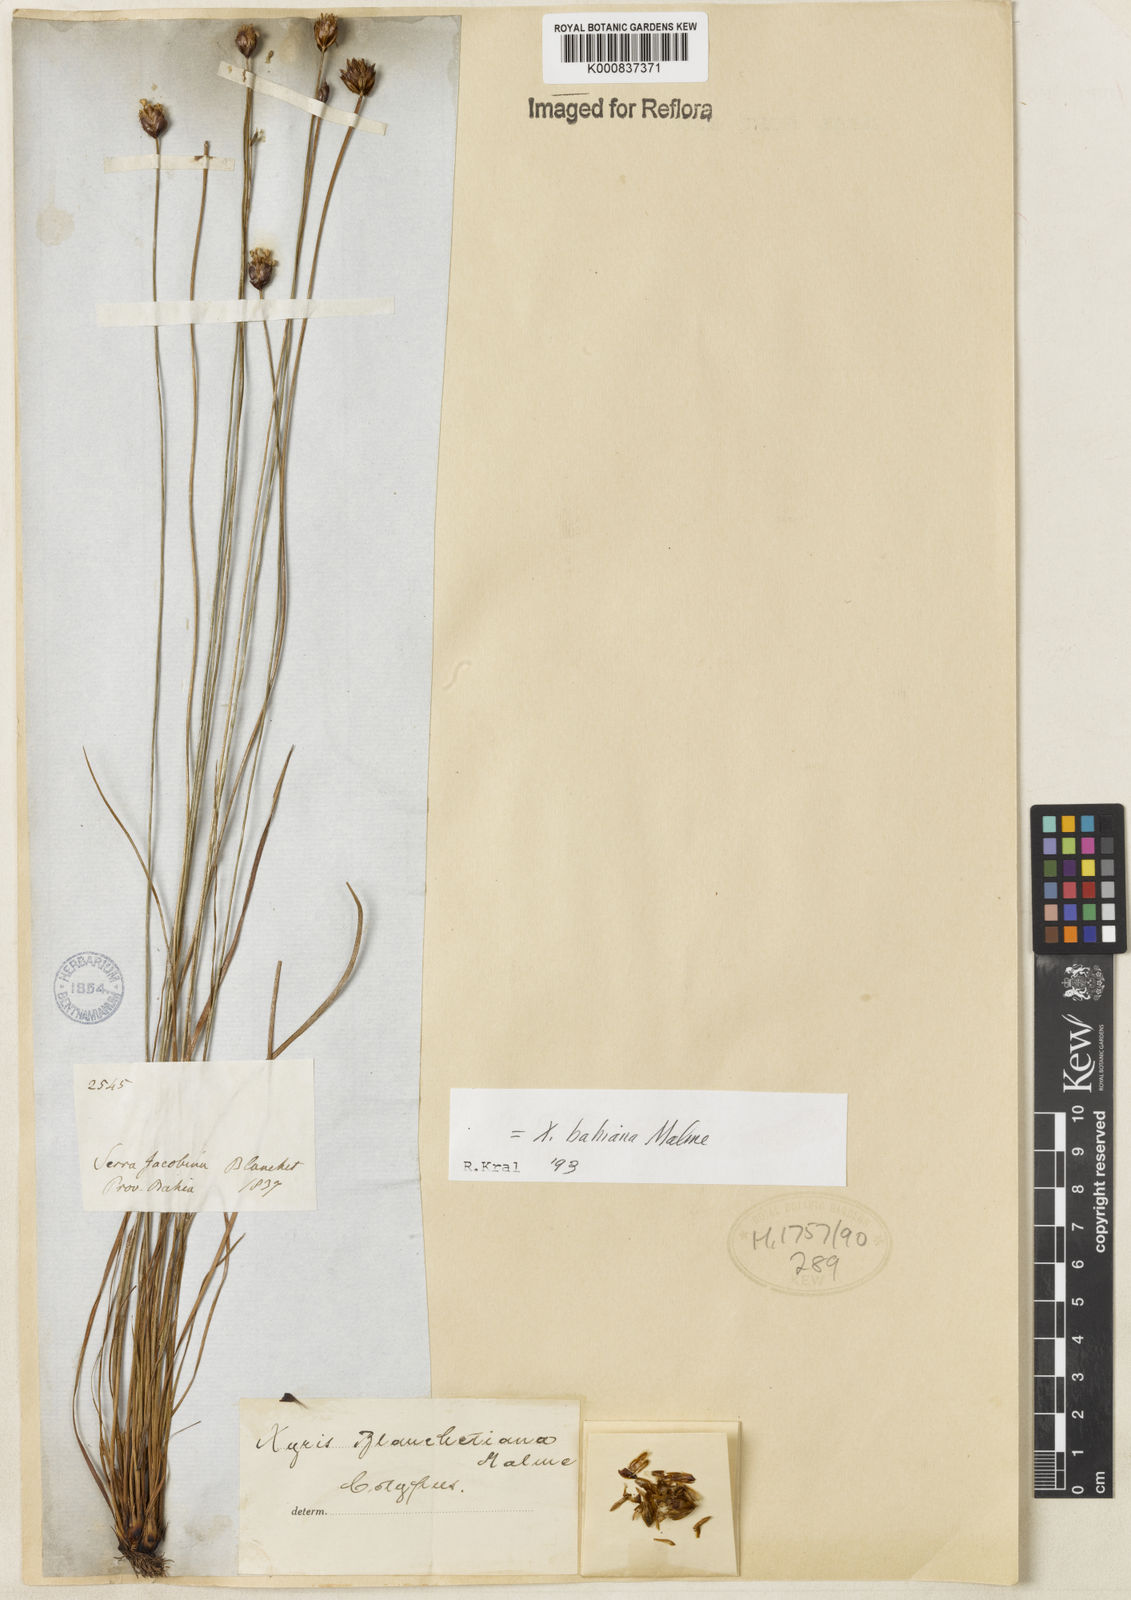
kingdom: Plantae
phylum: Tracheophyta
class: Liliopsida
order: Poales
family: Xyridaceae
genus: Xyris
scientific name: Xyris bahiana
